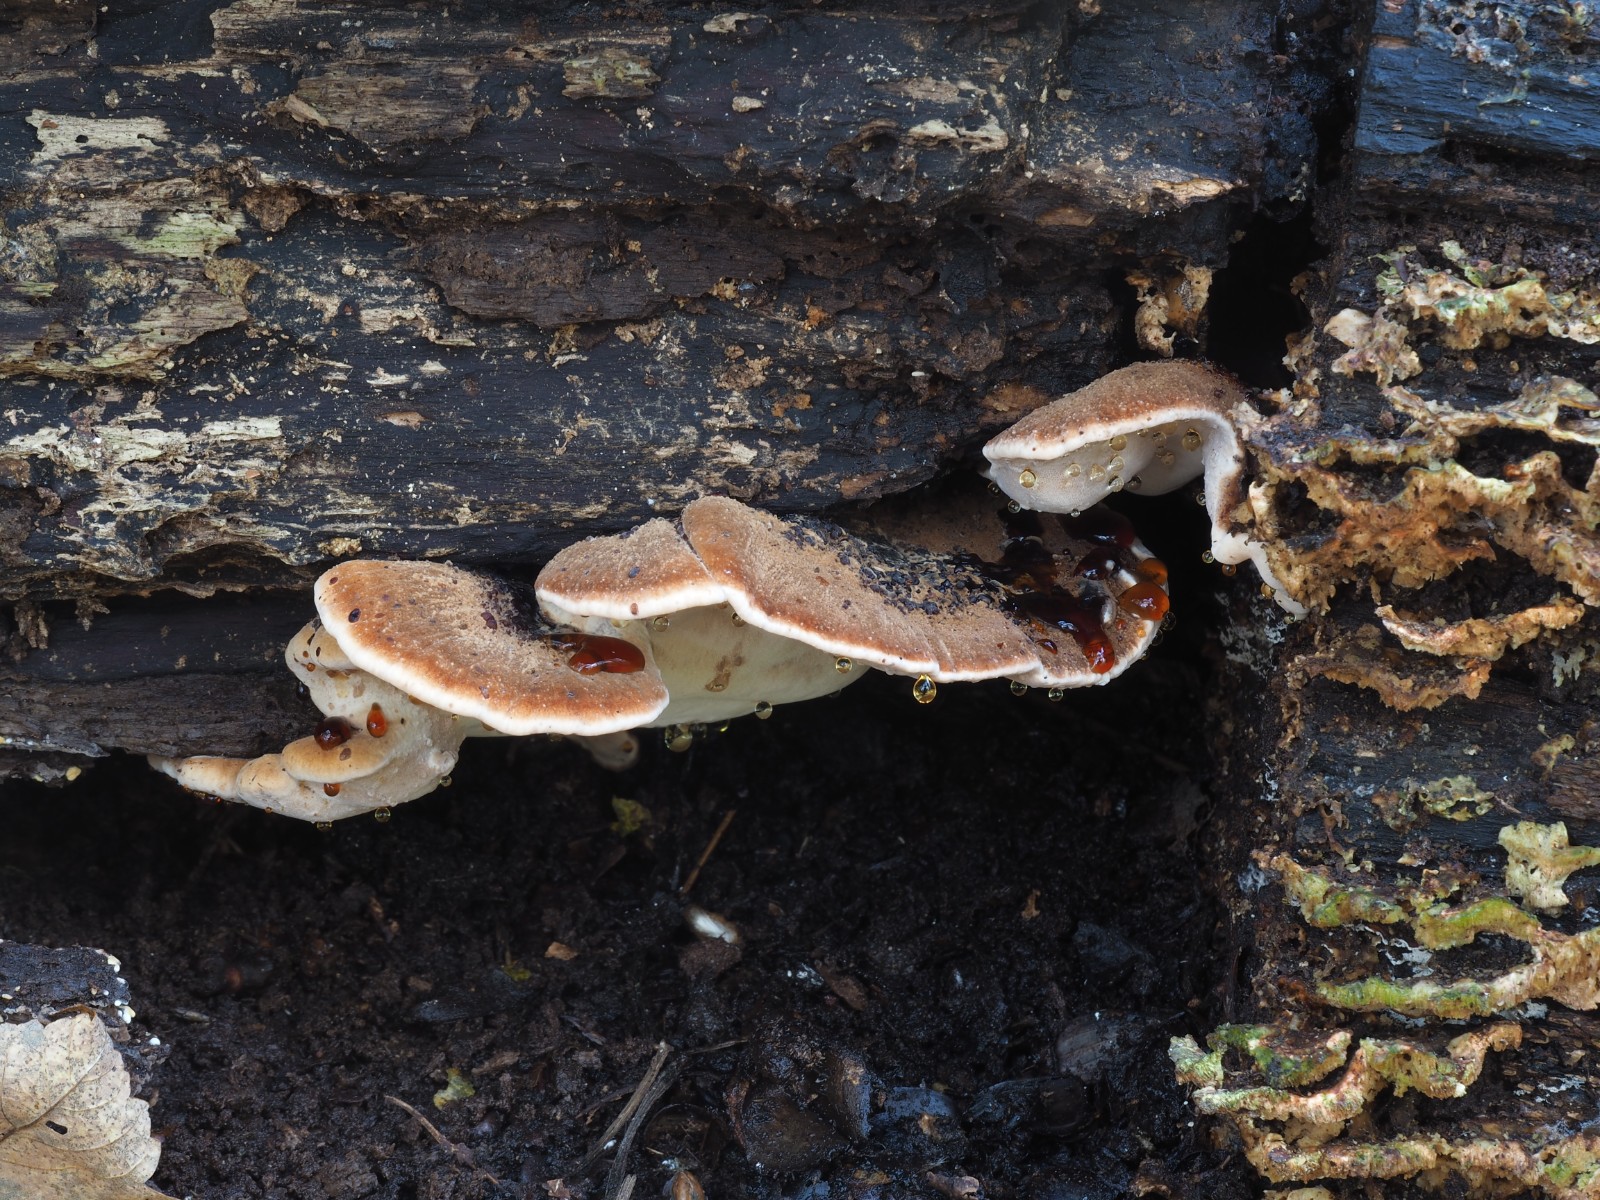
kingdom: Fungi
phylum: Basidiomycota
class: Agaricomycetes
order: Polyporales
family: Ischnodermataceae
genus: Ischnoderma
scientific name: Ischnoderma resinosum
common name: løv-tjæreporesvamp
